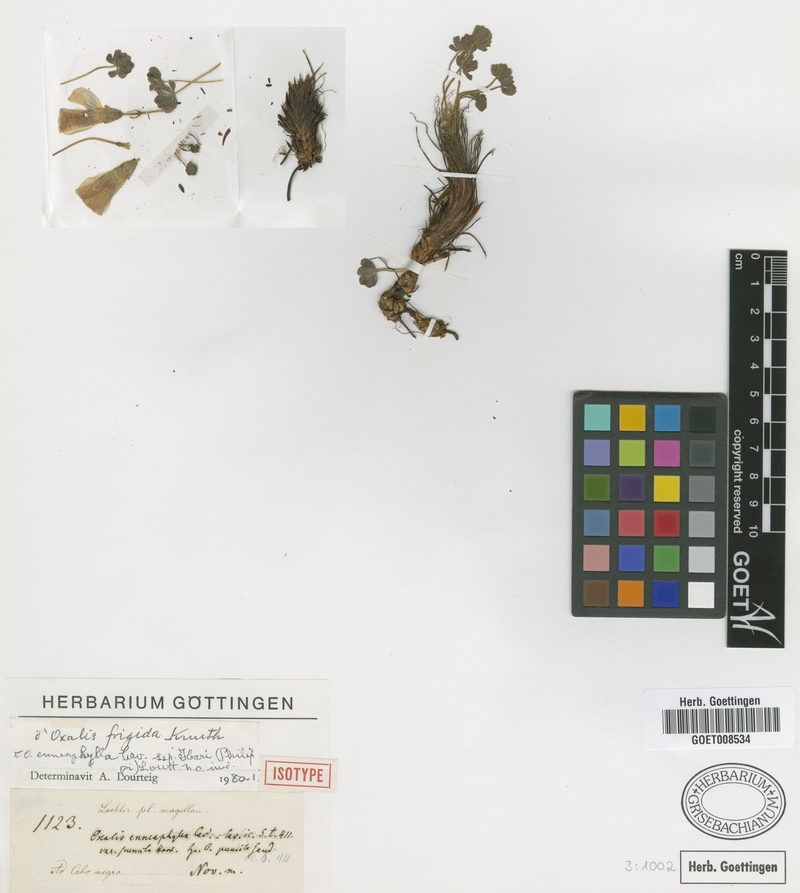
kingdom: Plantae
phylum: Tracheophyta
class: Magnoliopsida
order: Oxalidales
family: Oxalidaceae
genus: Oxalis
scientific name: Oxalis enneaphylla
